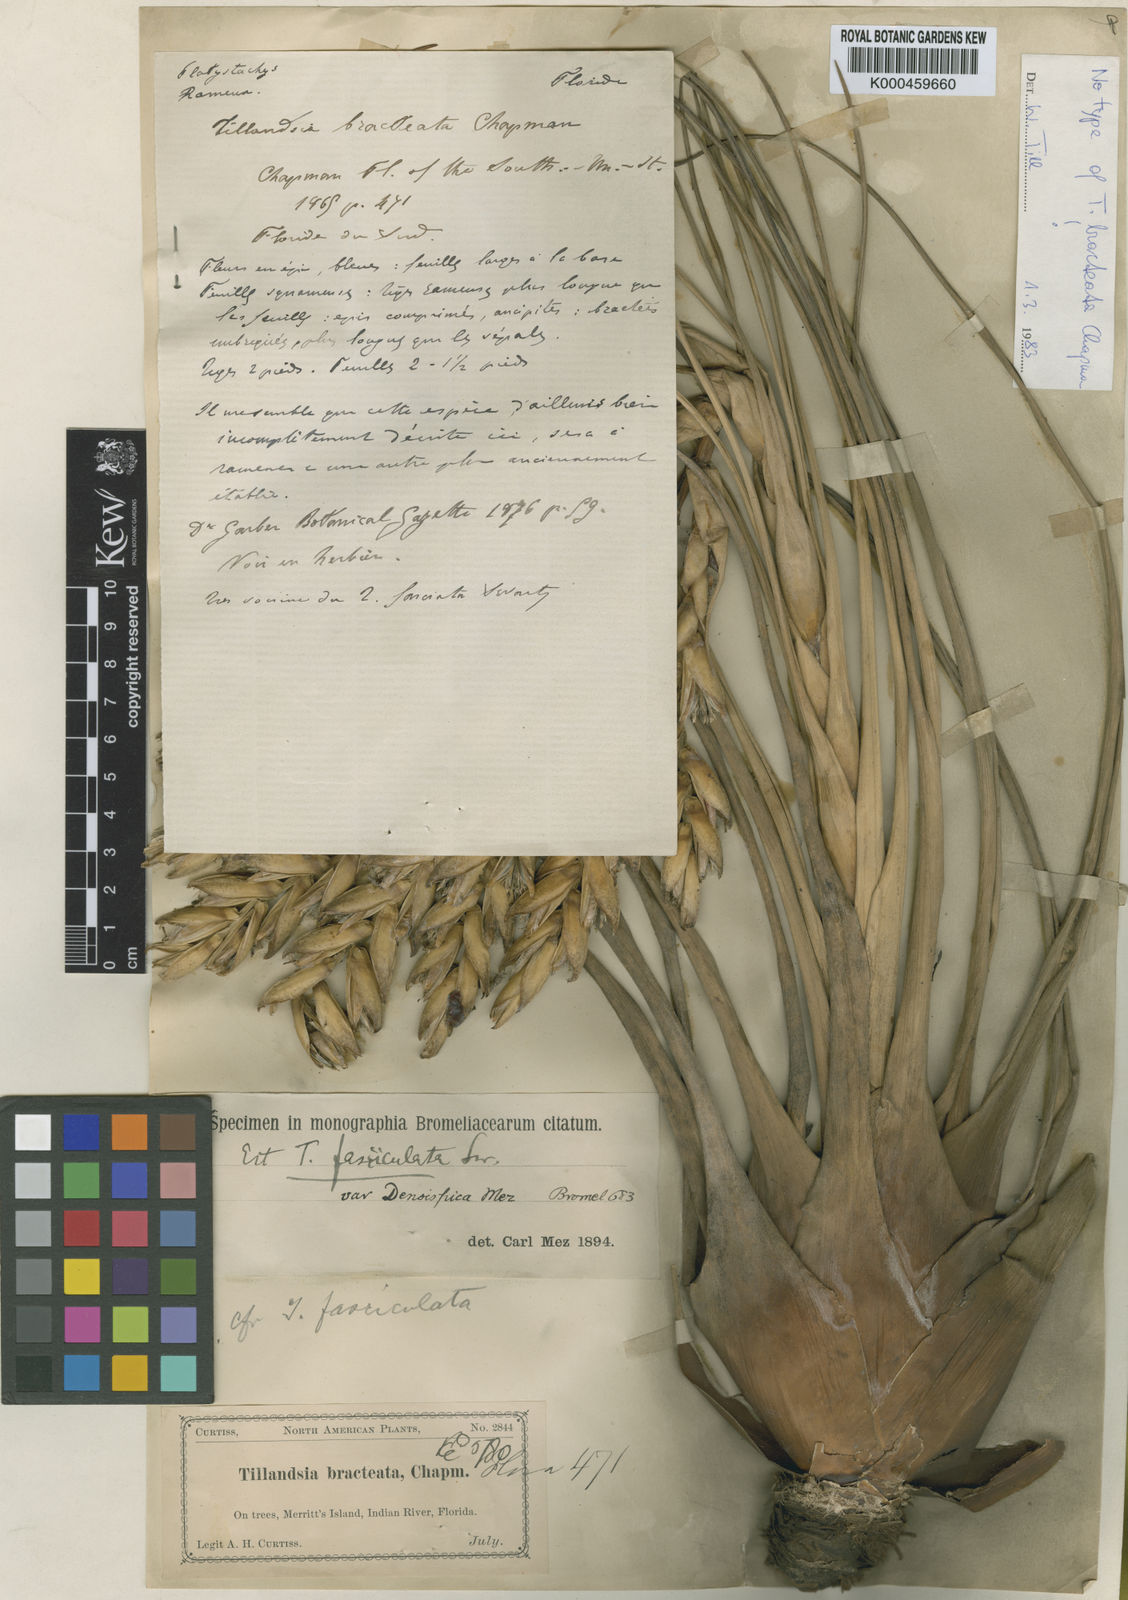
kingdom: Plantae
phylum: Tracheophyta
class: Liliopsida
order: Poales
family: Bromeliaceae
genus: Tillandsia
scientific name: Tillandsia floridana
